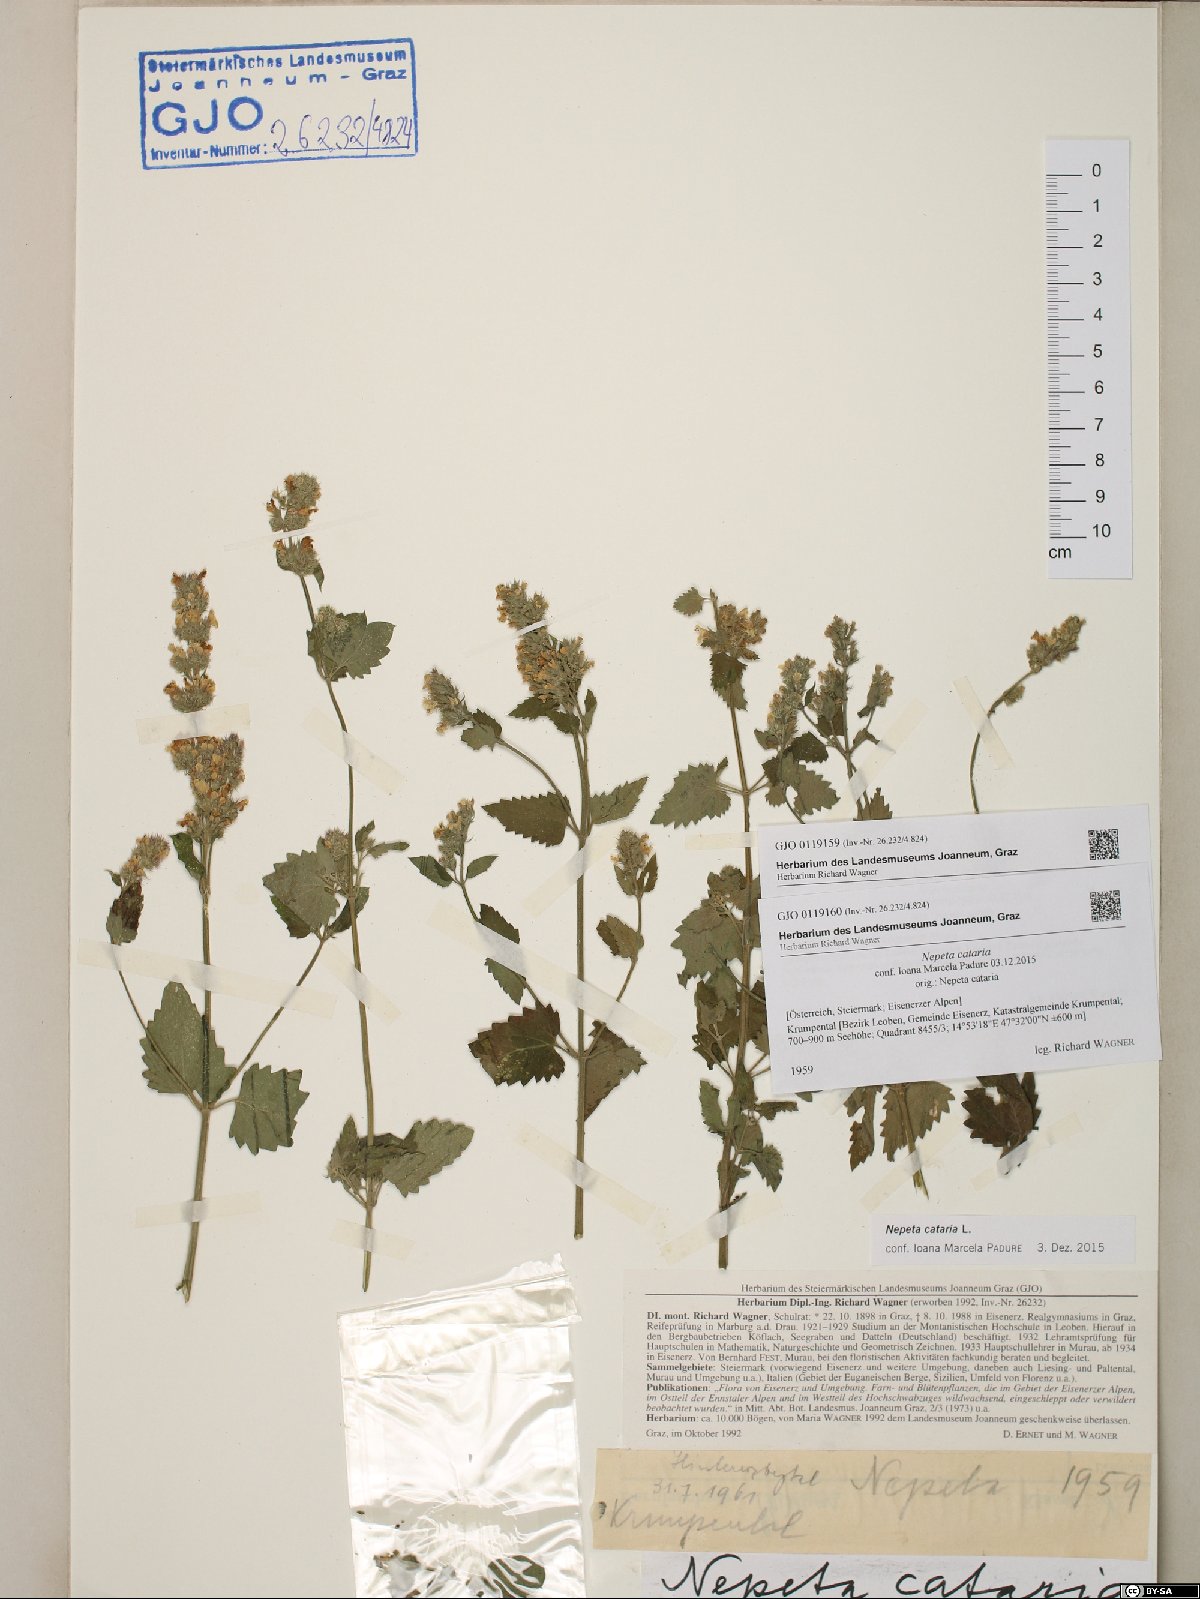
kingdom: Plantae
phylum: Tracheophyta
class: Magnoliopsida
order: Lamiales
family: Lamiaceae
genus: Nepeta
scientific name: Nepeta cataria
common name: Catnip
